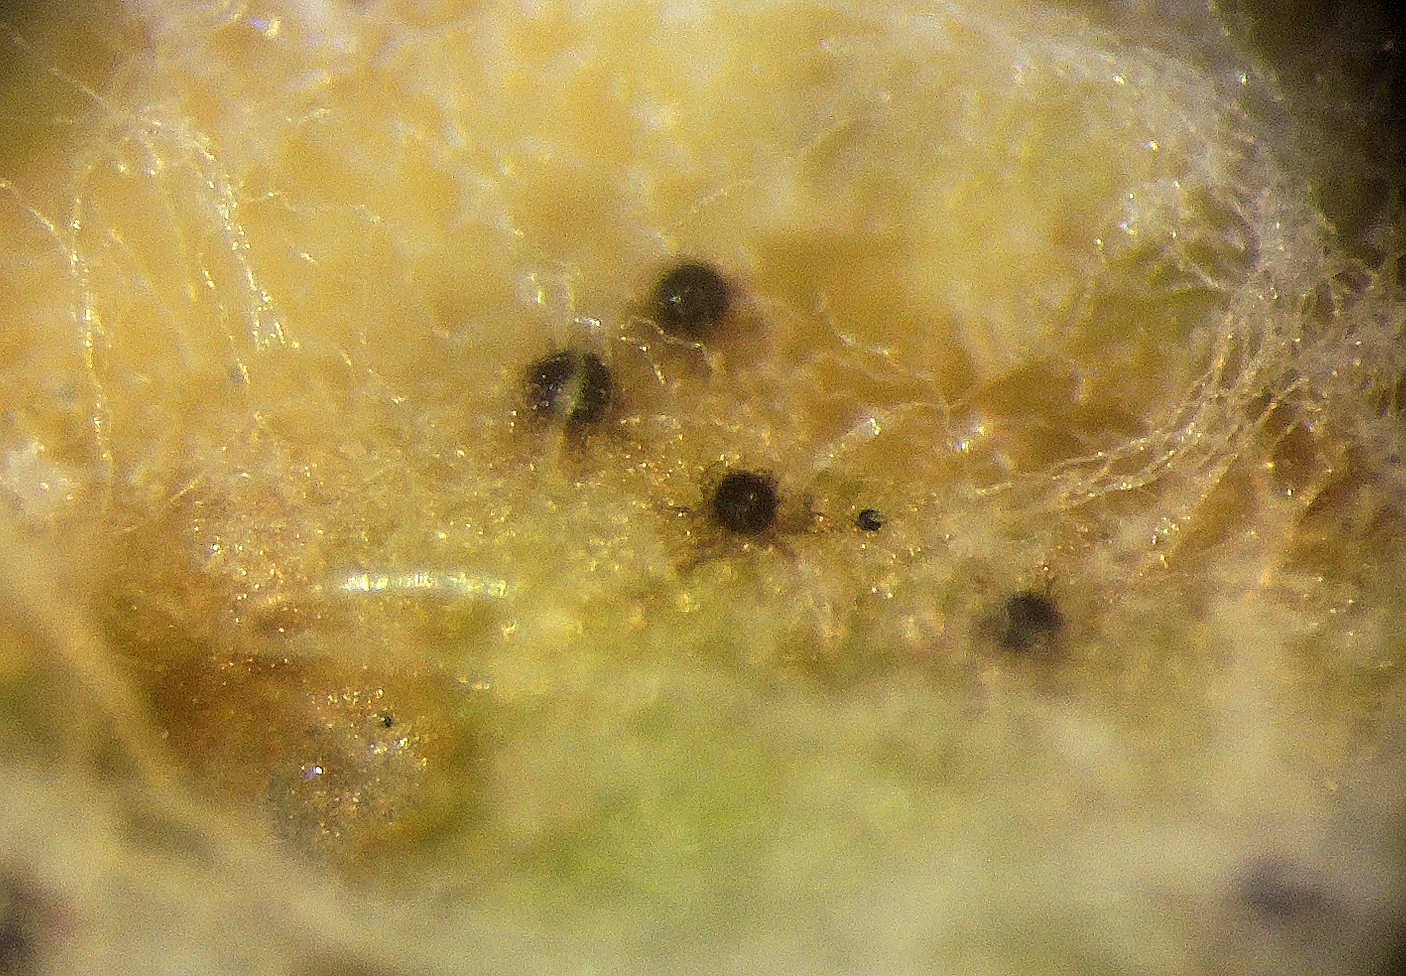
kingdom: Fungi
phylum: Ascomycota
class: Leotiomycetes
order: Helotiales
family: Erysiphaceae
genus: Golovinomyces
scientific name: Golovinomyces montagnei
